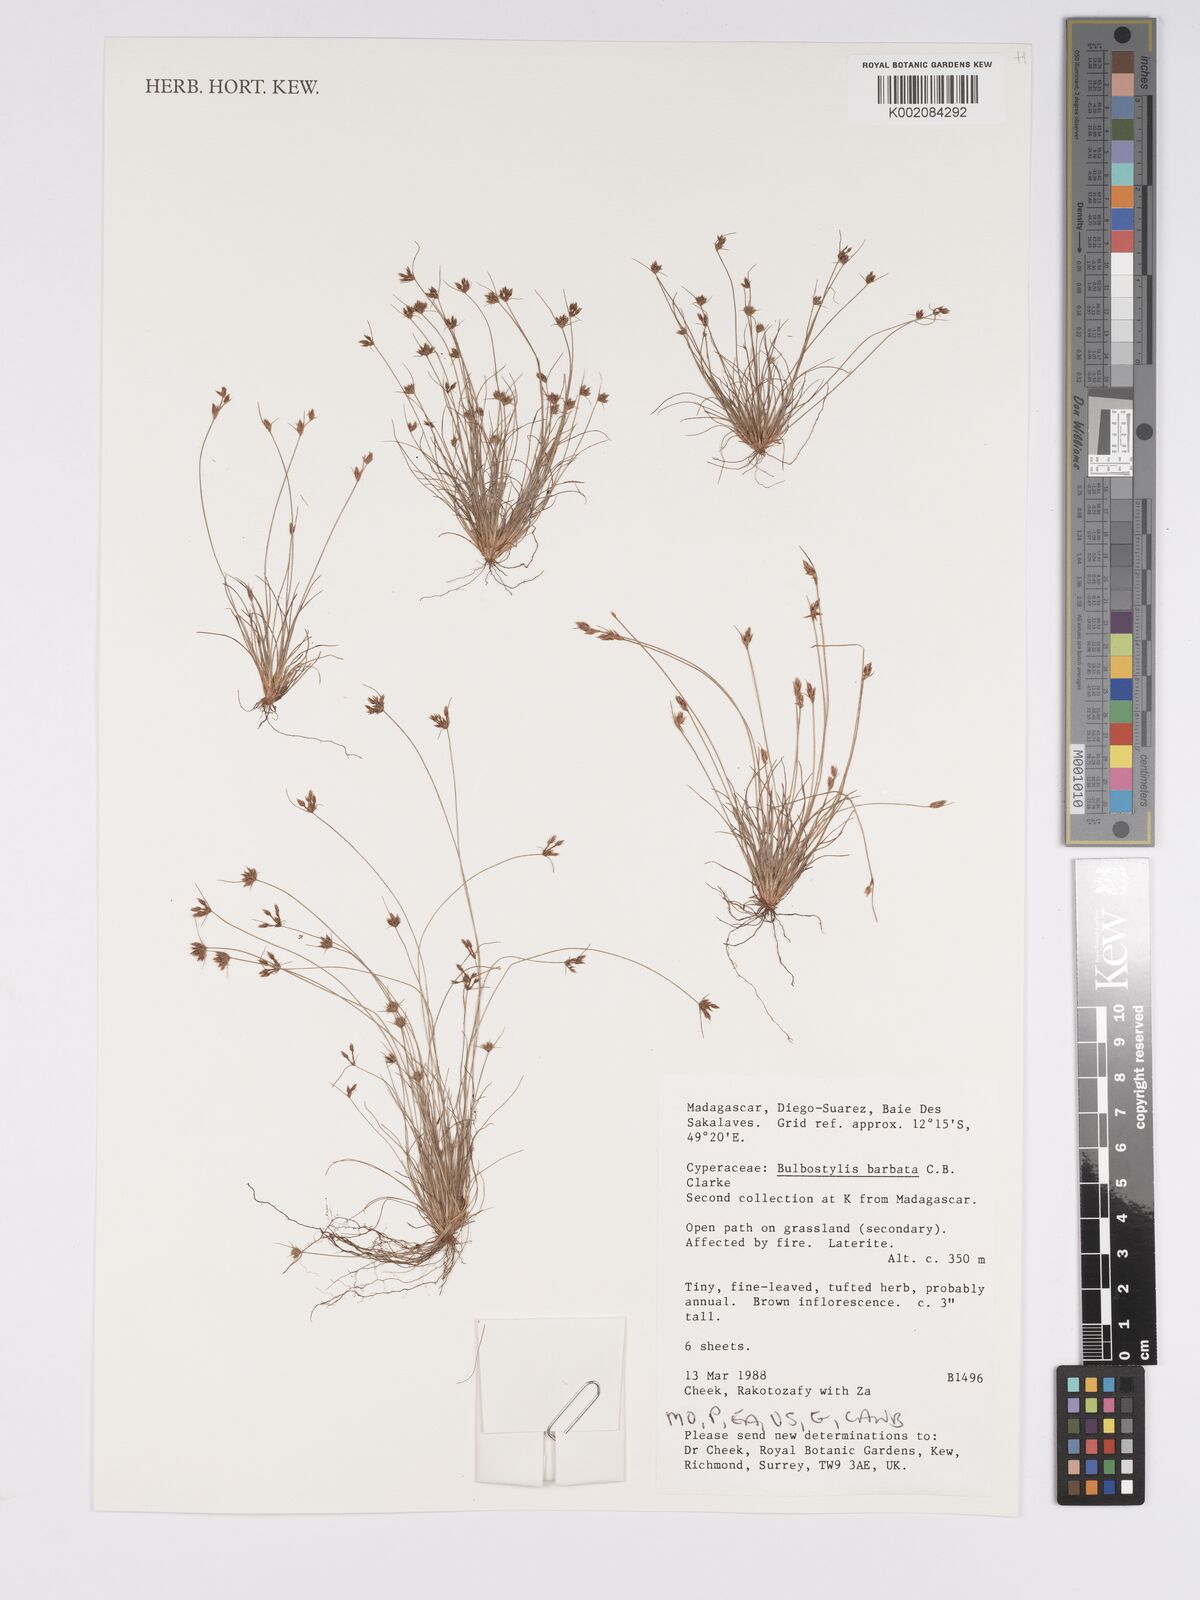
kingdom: Plantae
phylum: Tracheophyta
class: Liliopsida
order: Poales
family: Cyperaceae
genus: Bulbostylis
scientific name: Bulbostylis barbata
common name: Watergrass
